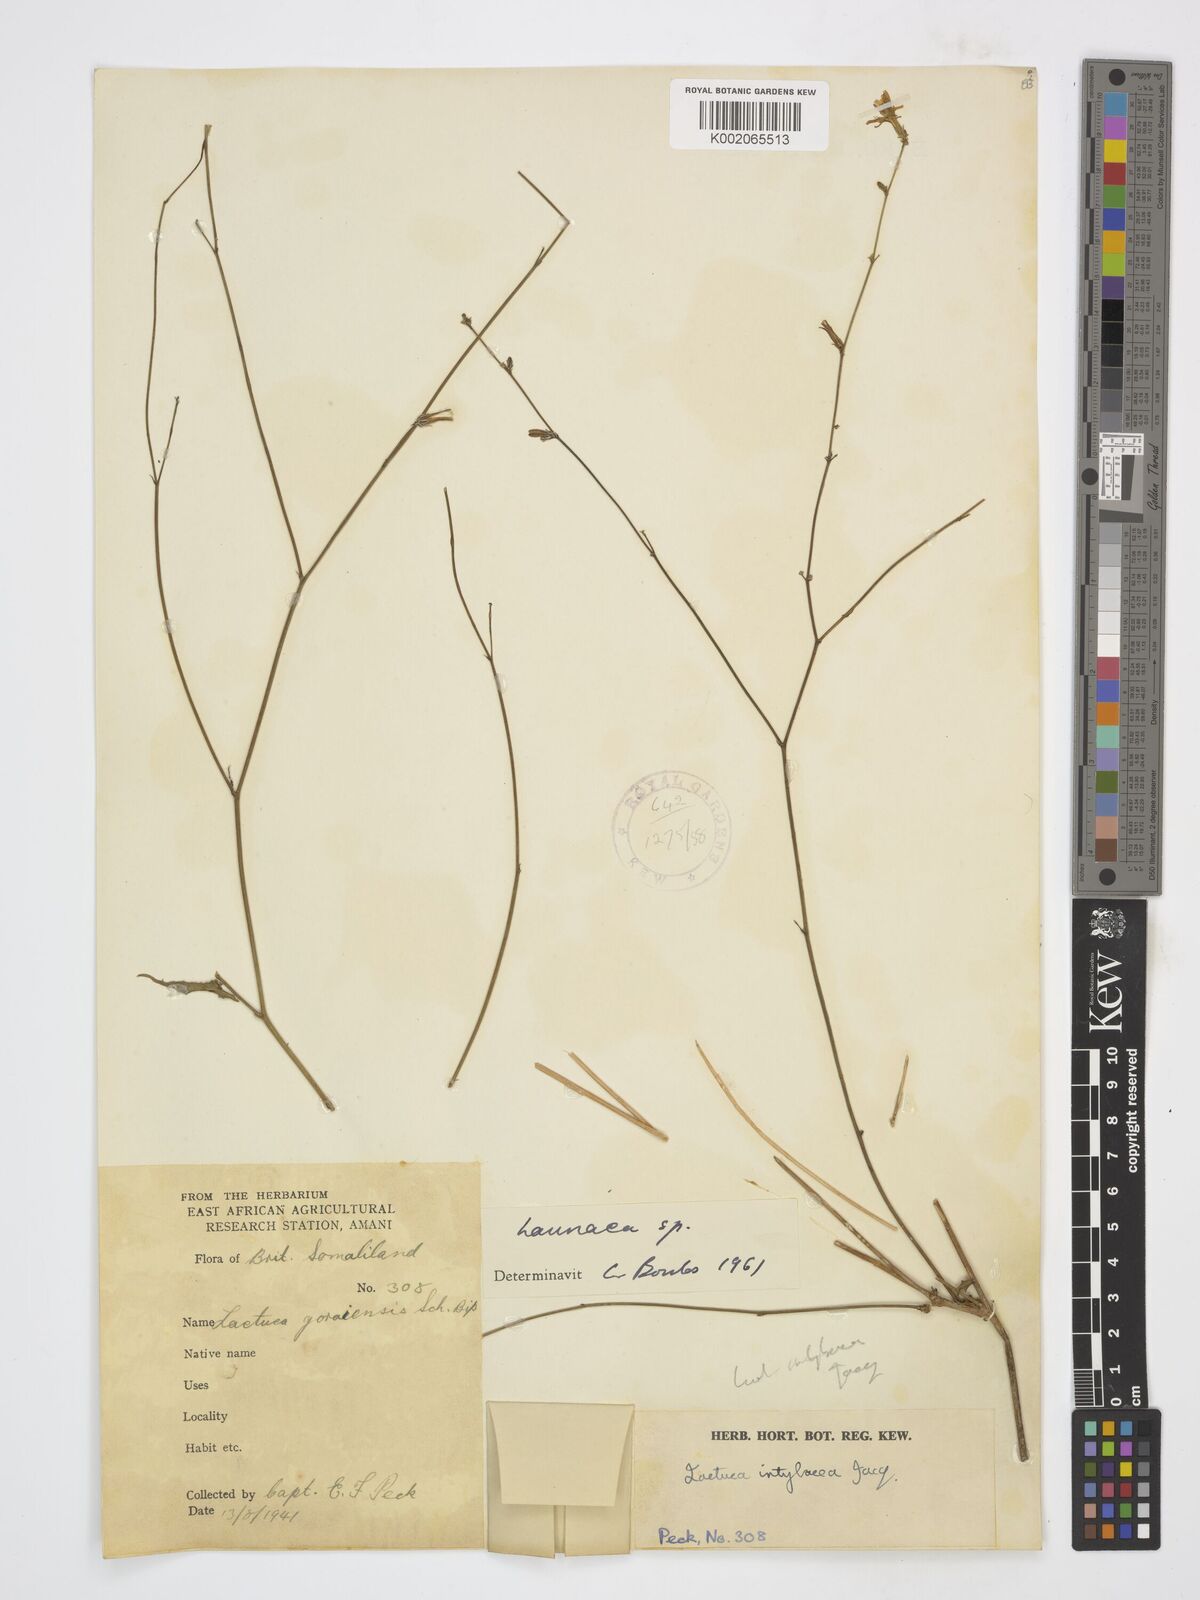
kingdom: Plantae
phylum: Tracheophyta
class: Magnoliopsida
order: Asterales
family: Asteraceae
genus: Launaea
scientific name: Launaea
